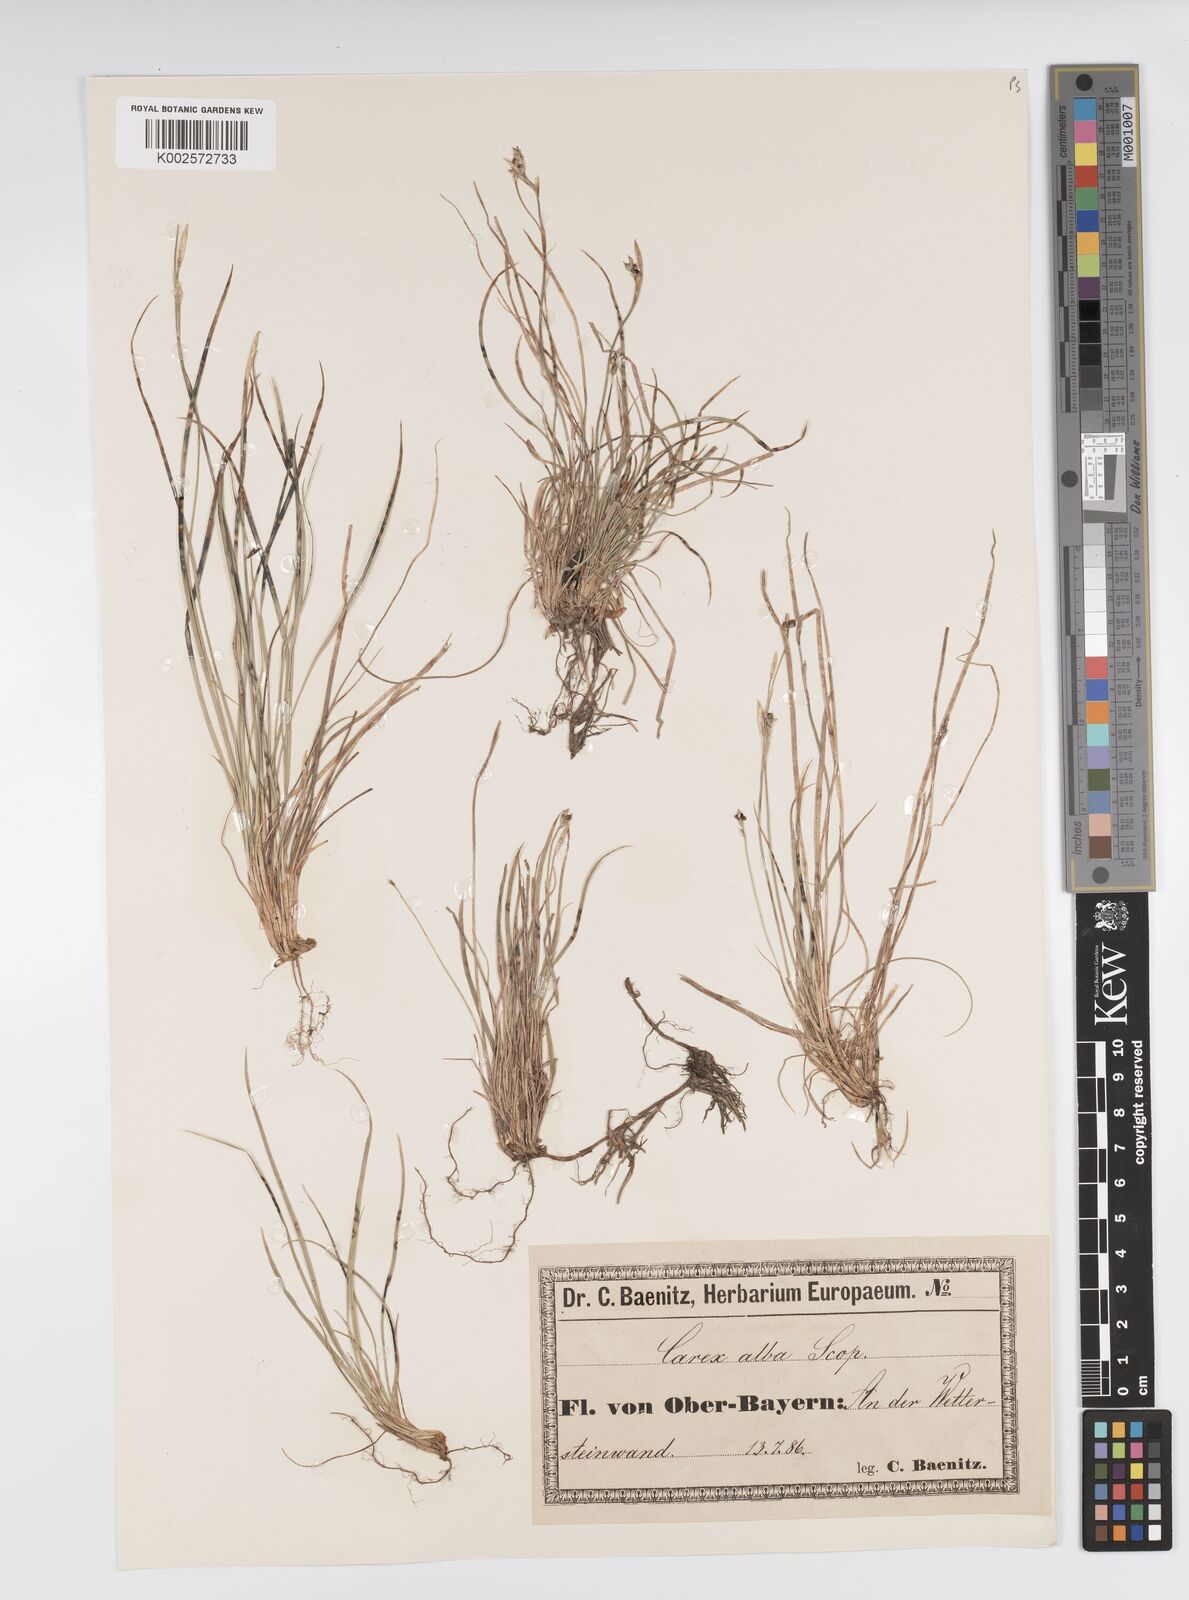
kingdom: Plantae
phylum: Tracheophyta
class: Liliopsida
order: Poales
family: Cyperaceae
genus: Carex
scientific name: Carex alba
